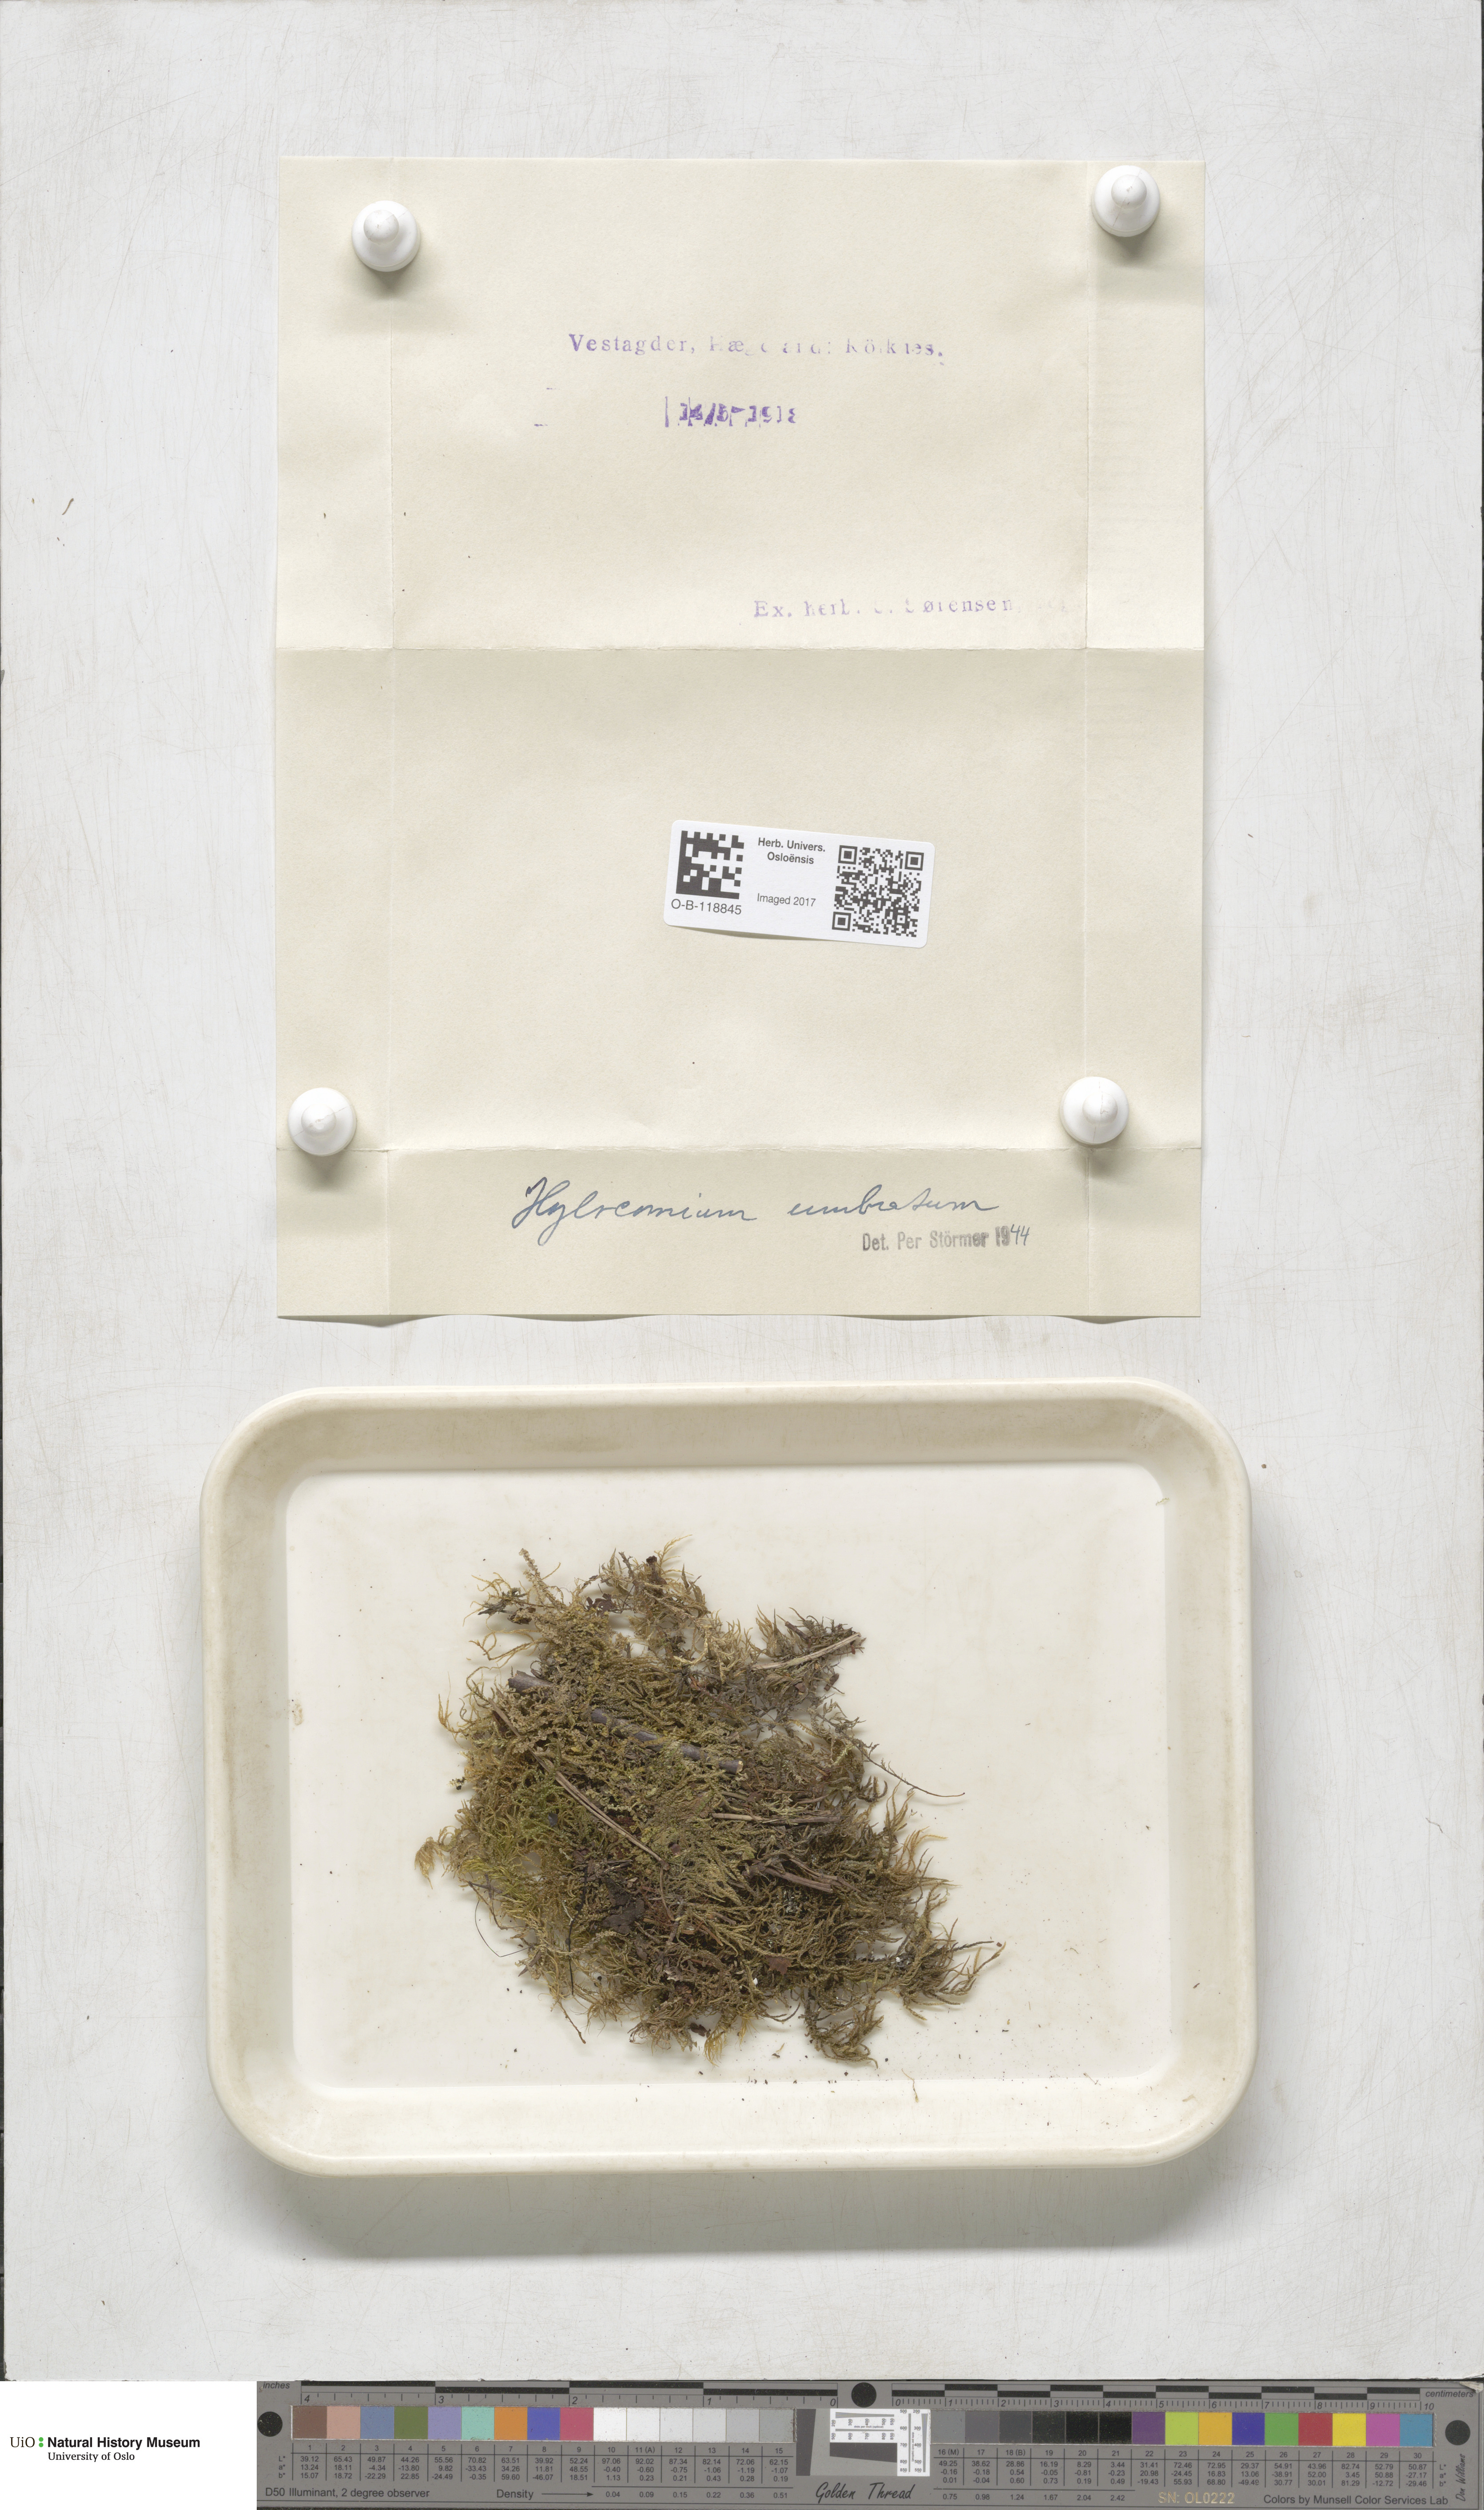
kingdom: Plantae
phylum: Bryophyta
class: Bryopsida
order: Hypnales
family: Hylocomiaceae
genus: Hylocomiastrum
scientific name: Hylocomiastrum umbratum
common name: Shaded woods moss
